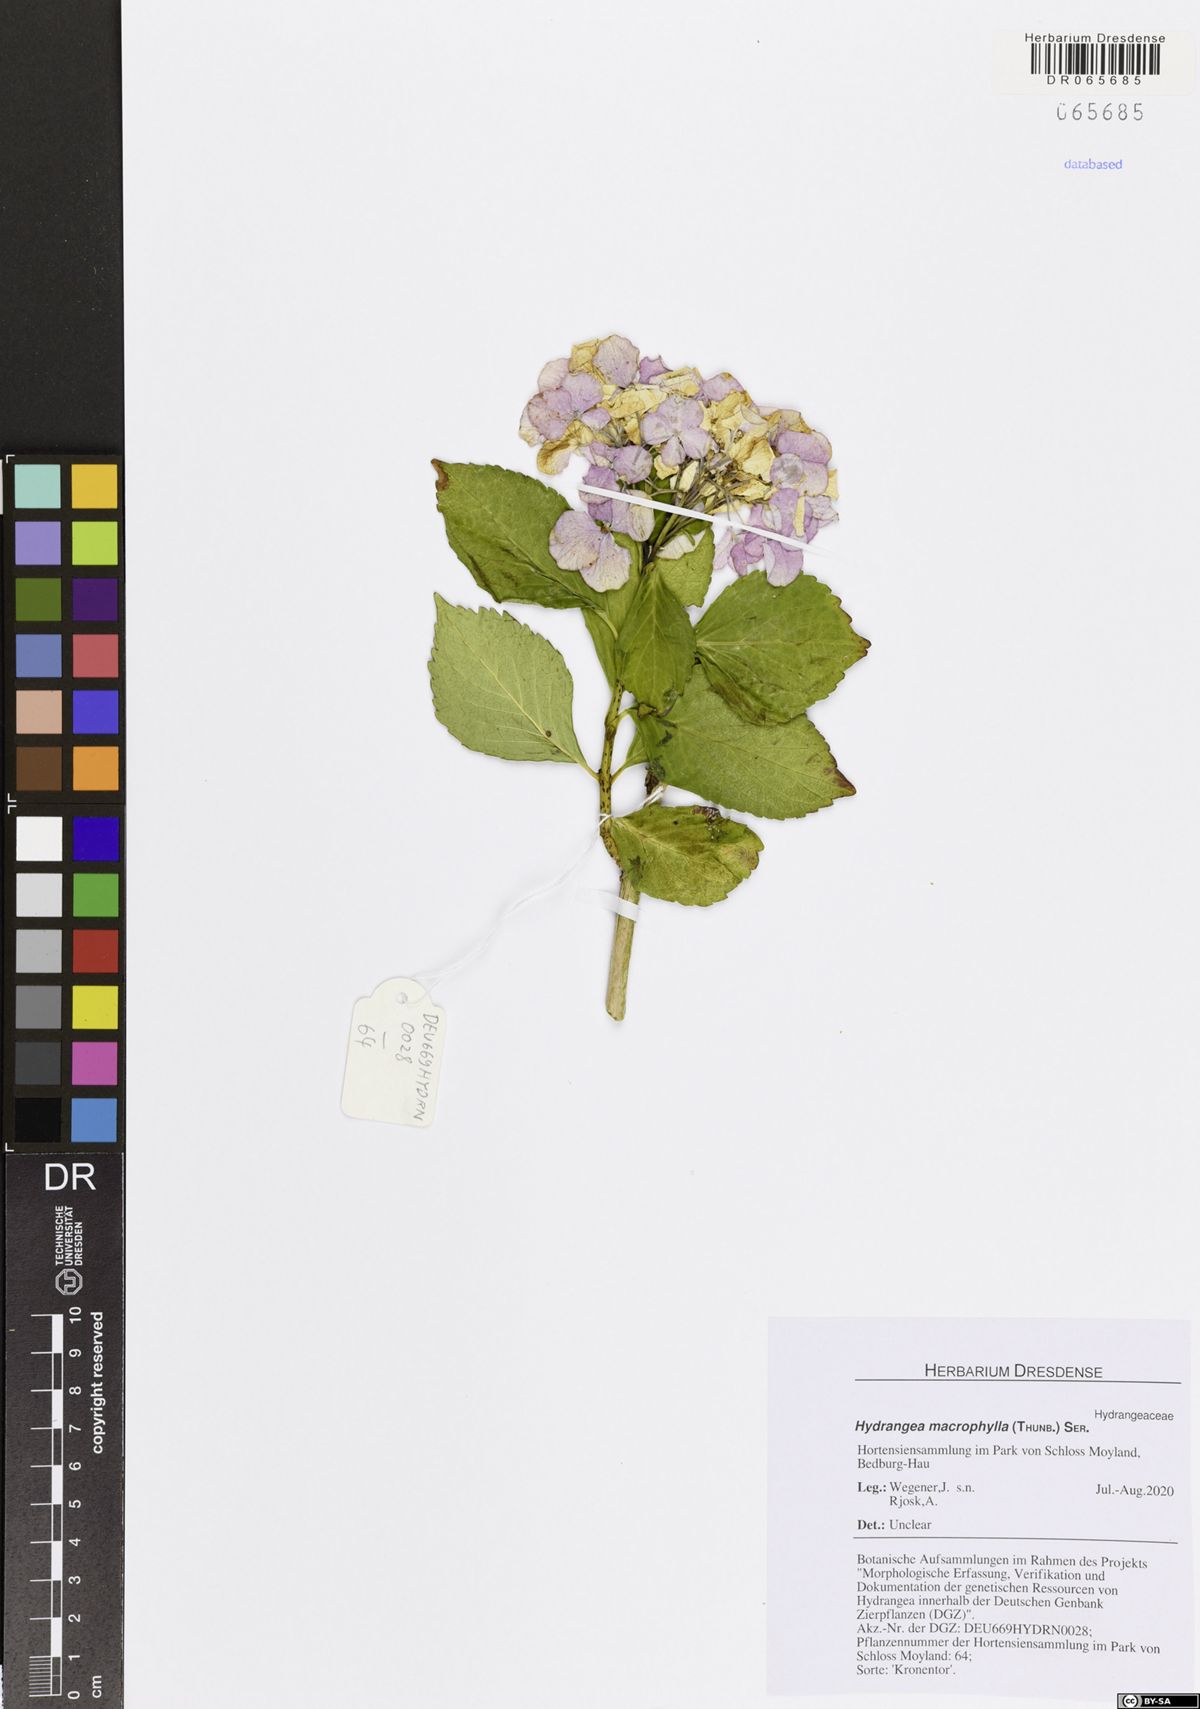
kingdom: Plantae
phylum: Tracheophyta
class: Magnoliopsida
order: Cornales
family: Hydrangeaceae
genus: Hydrangea
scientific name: Hydrangea macrophylla
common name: Hydrangea
